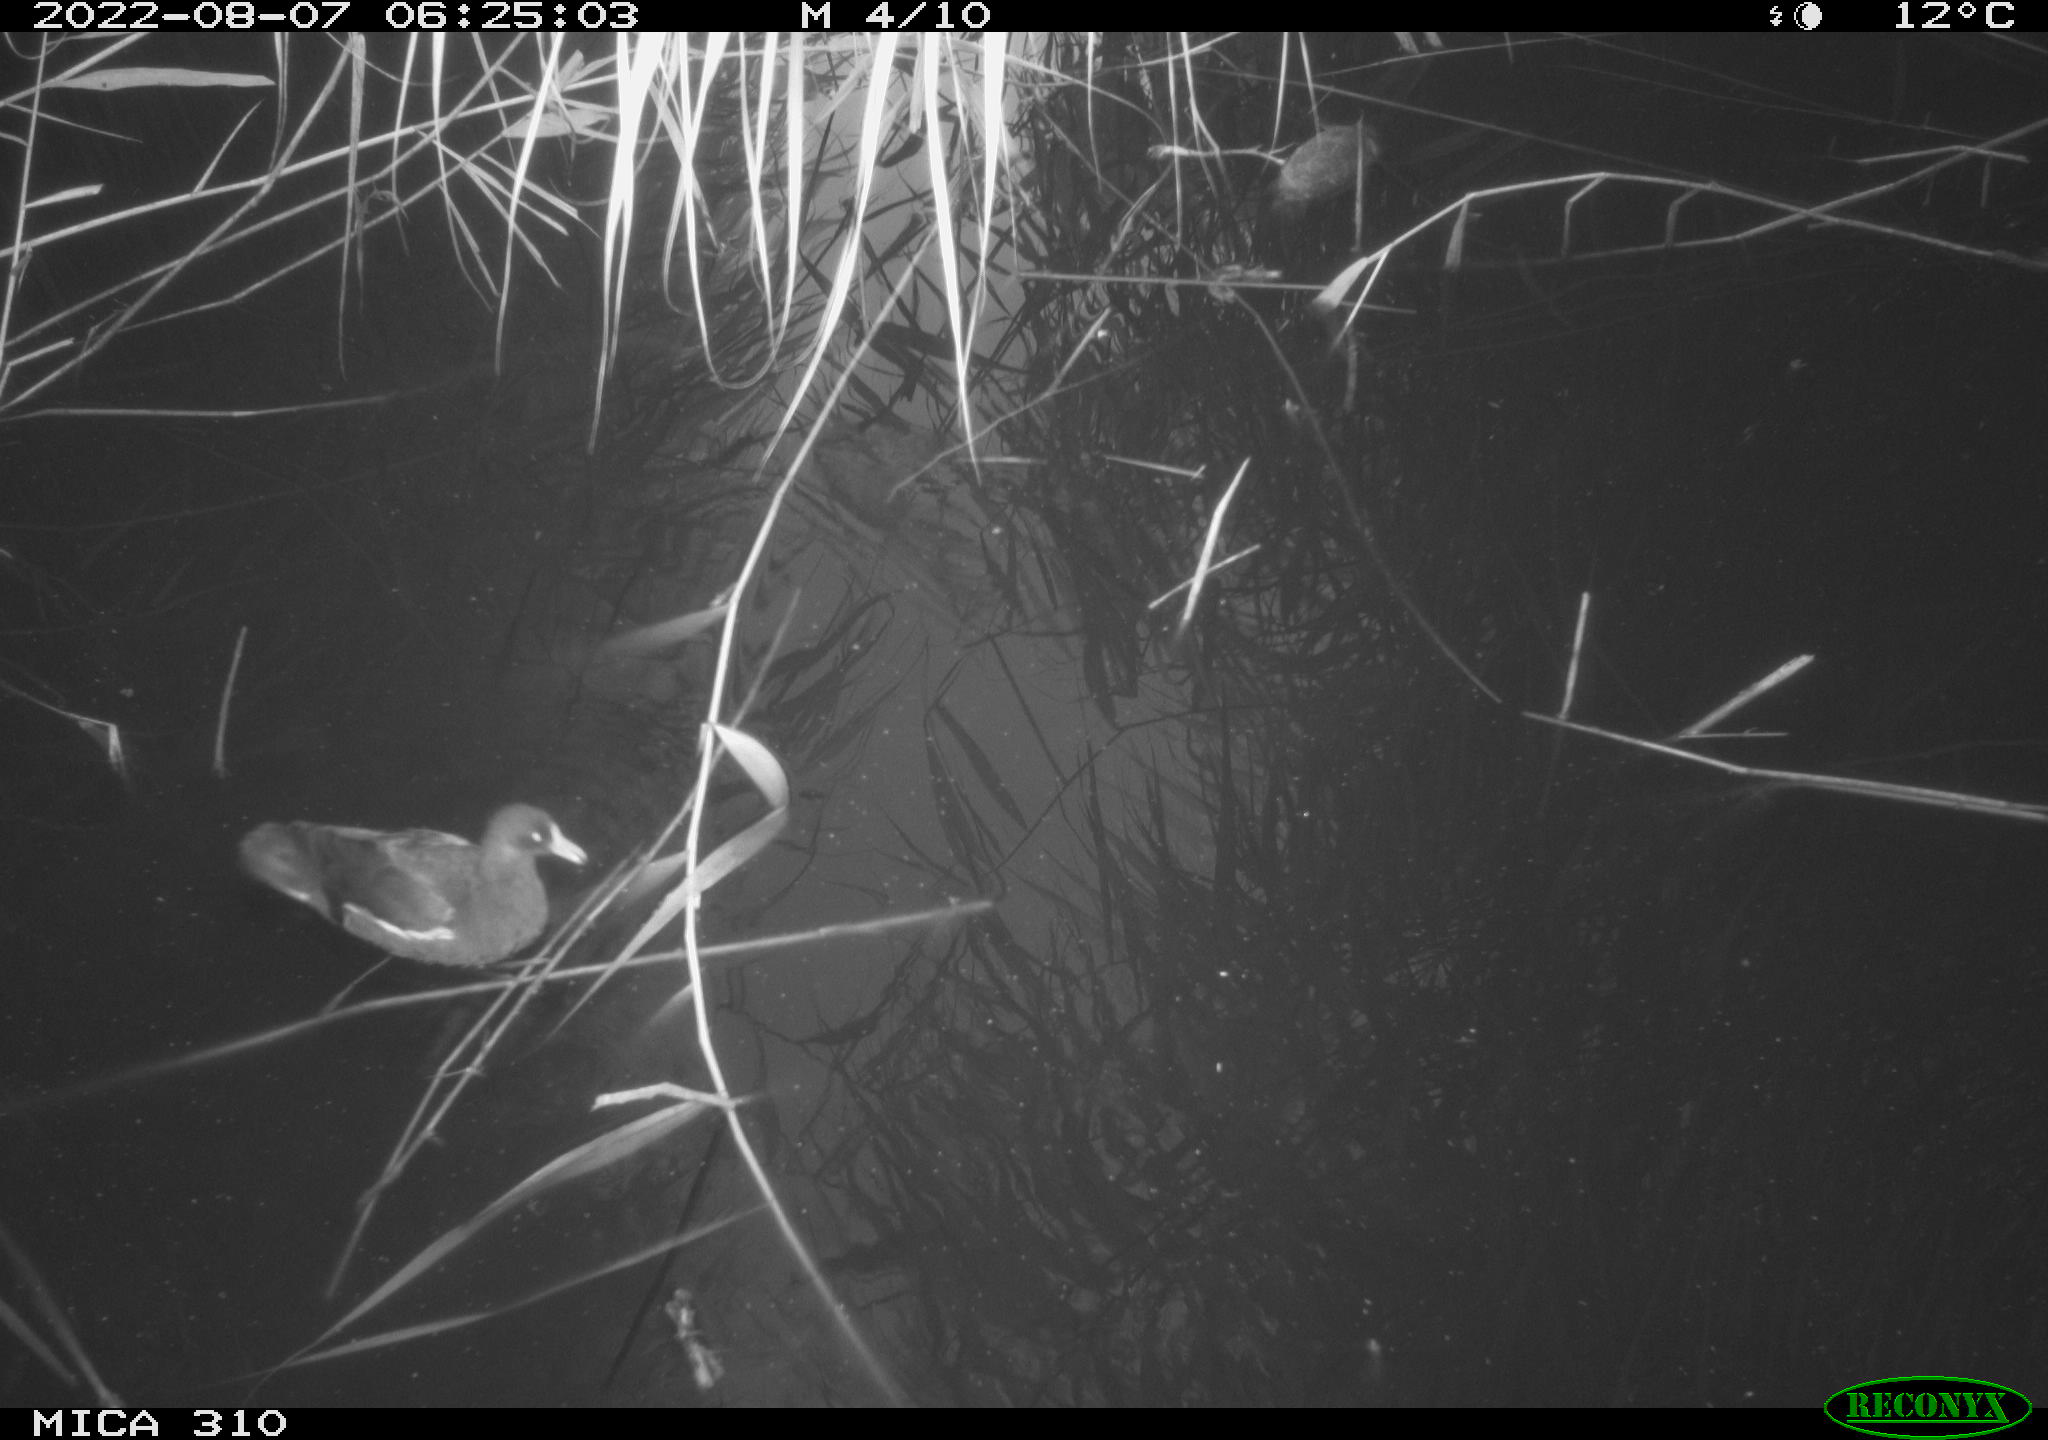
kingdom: Animalia
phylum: Chordata
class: Aves
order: Gruiformes
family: Rallidae
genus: Gallinula
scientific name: Gallinula chloropus
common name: Common moorhen
